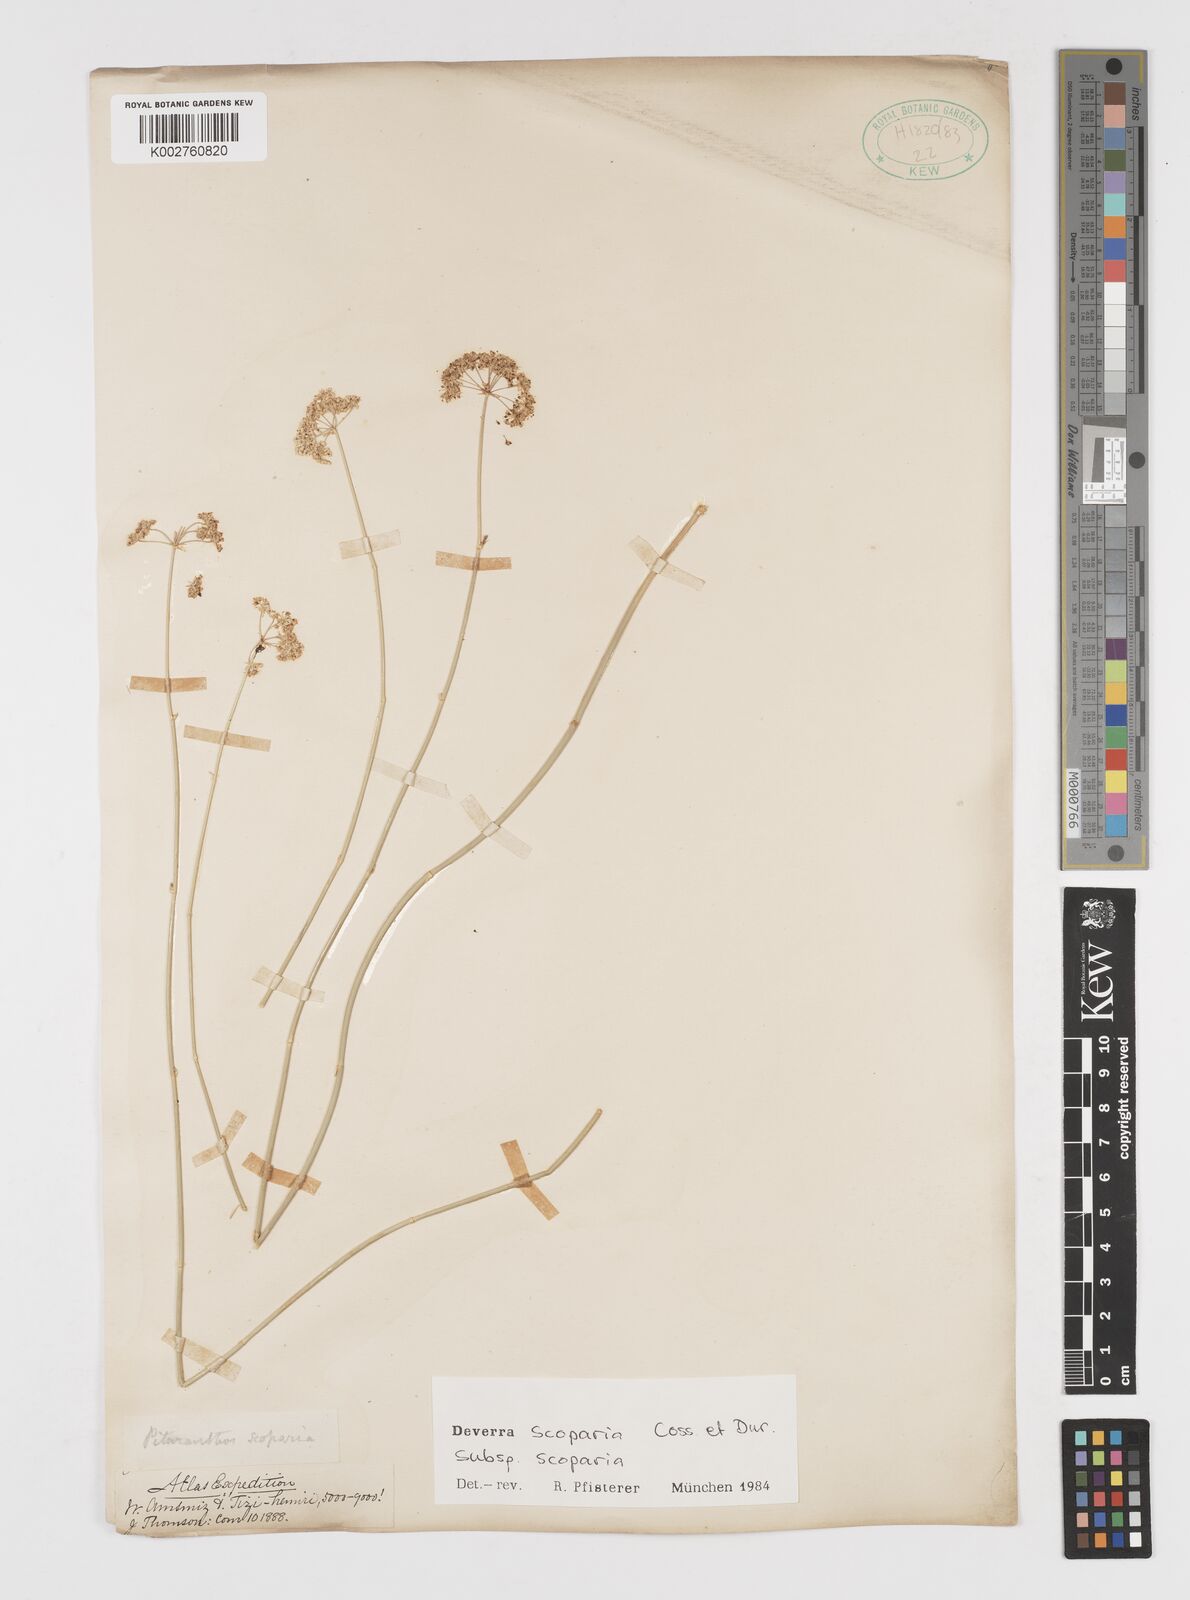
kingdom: Plantae
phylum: Tracheophyta
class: Magnoliopsida
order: Apiales
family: Apiaceae
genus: Deverra
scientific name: Deverra scoparia
